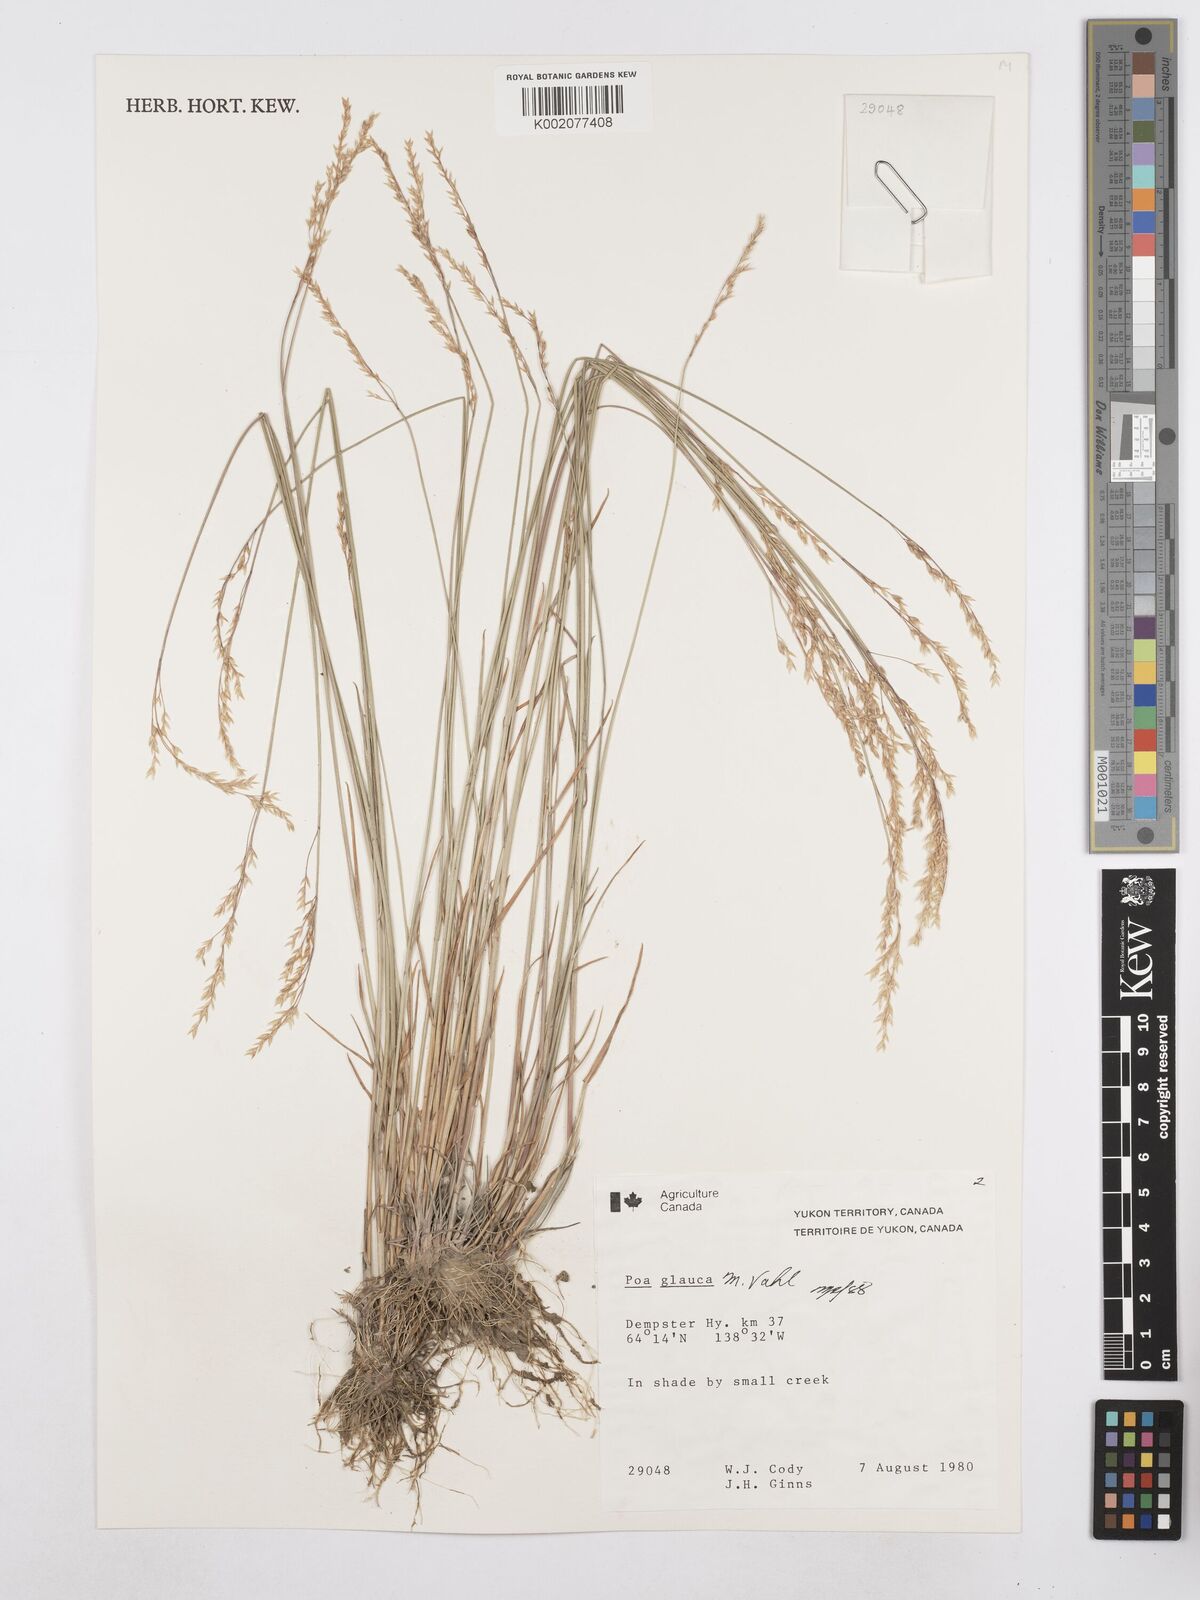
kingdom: Plantae
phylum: Tracheophyta
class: Liliopsida
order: Poales
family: Poaceae
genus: Poa
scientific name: Poa glauca
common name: Glaucous bluegrass
